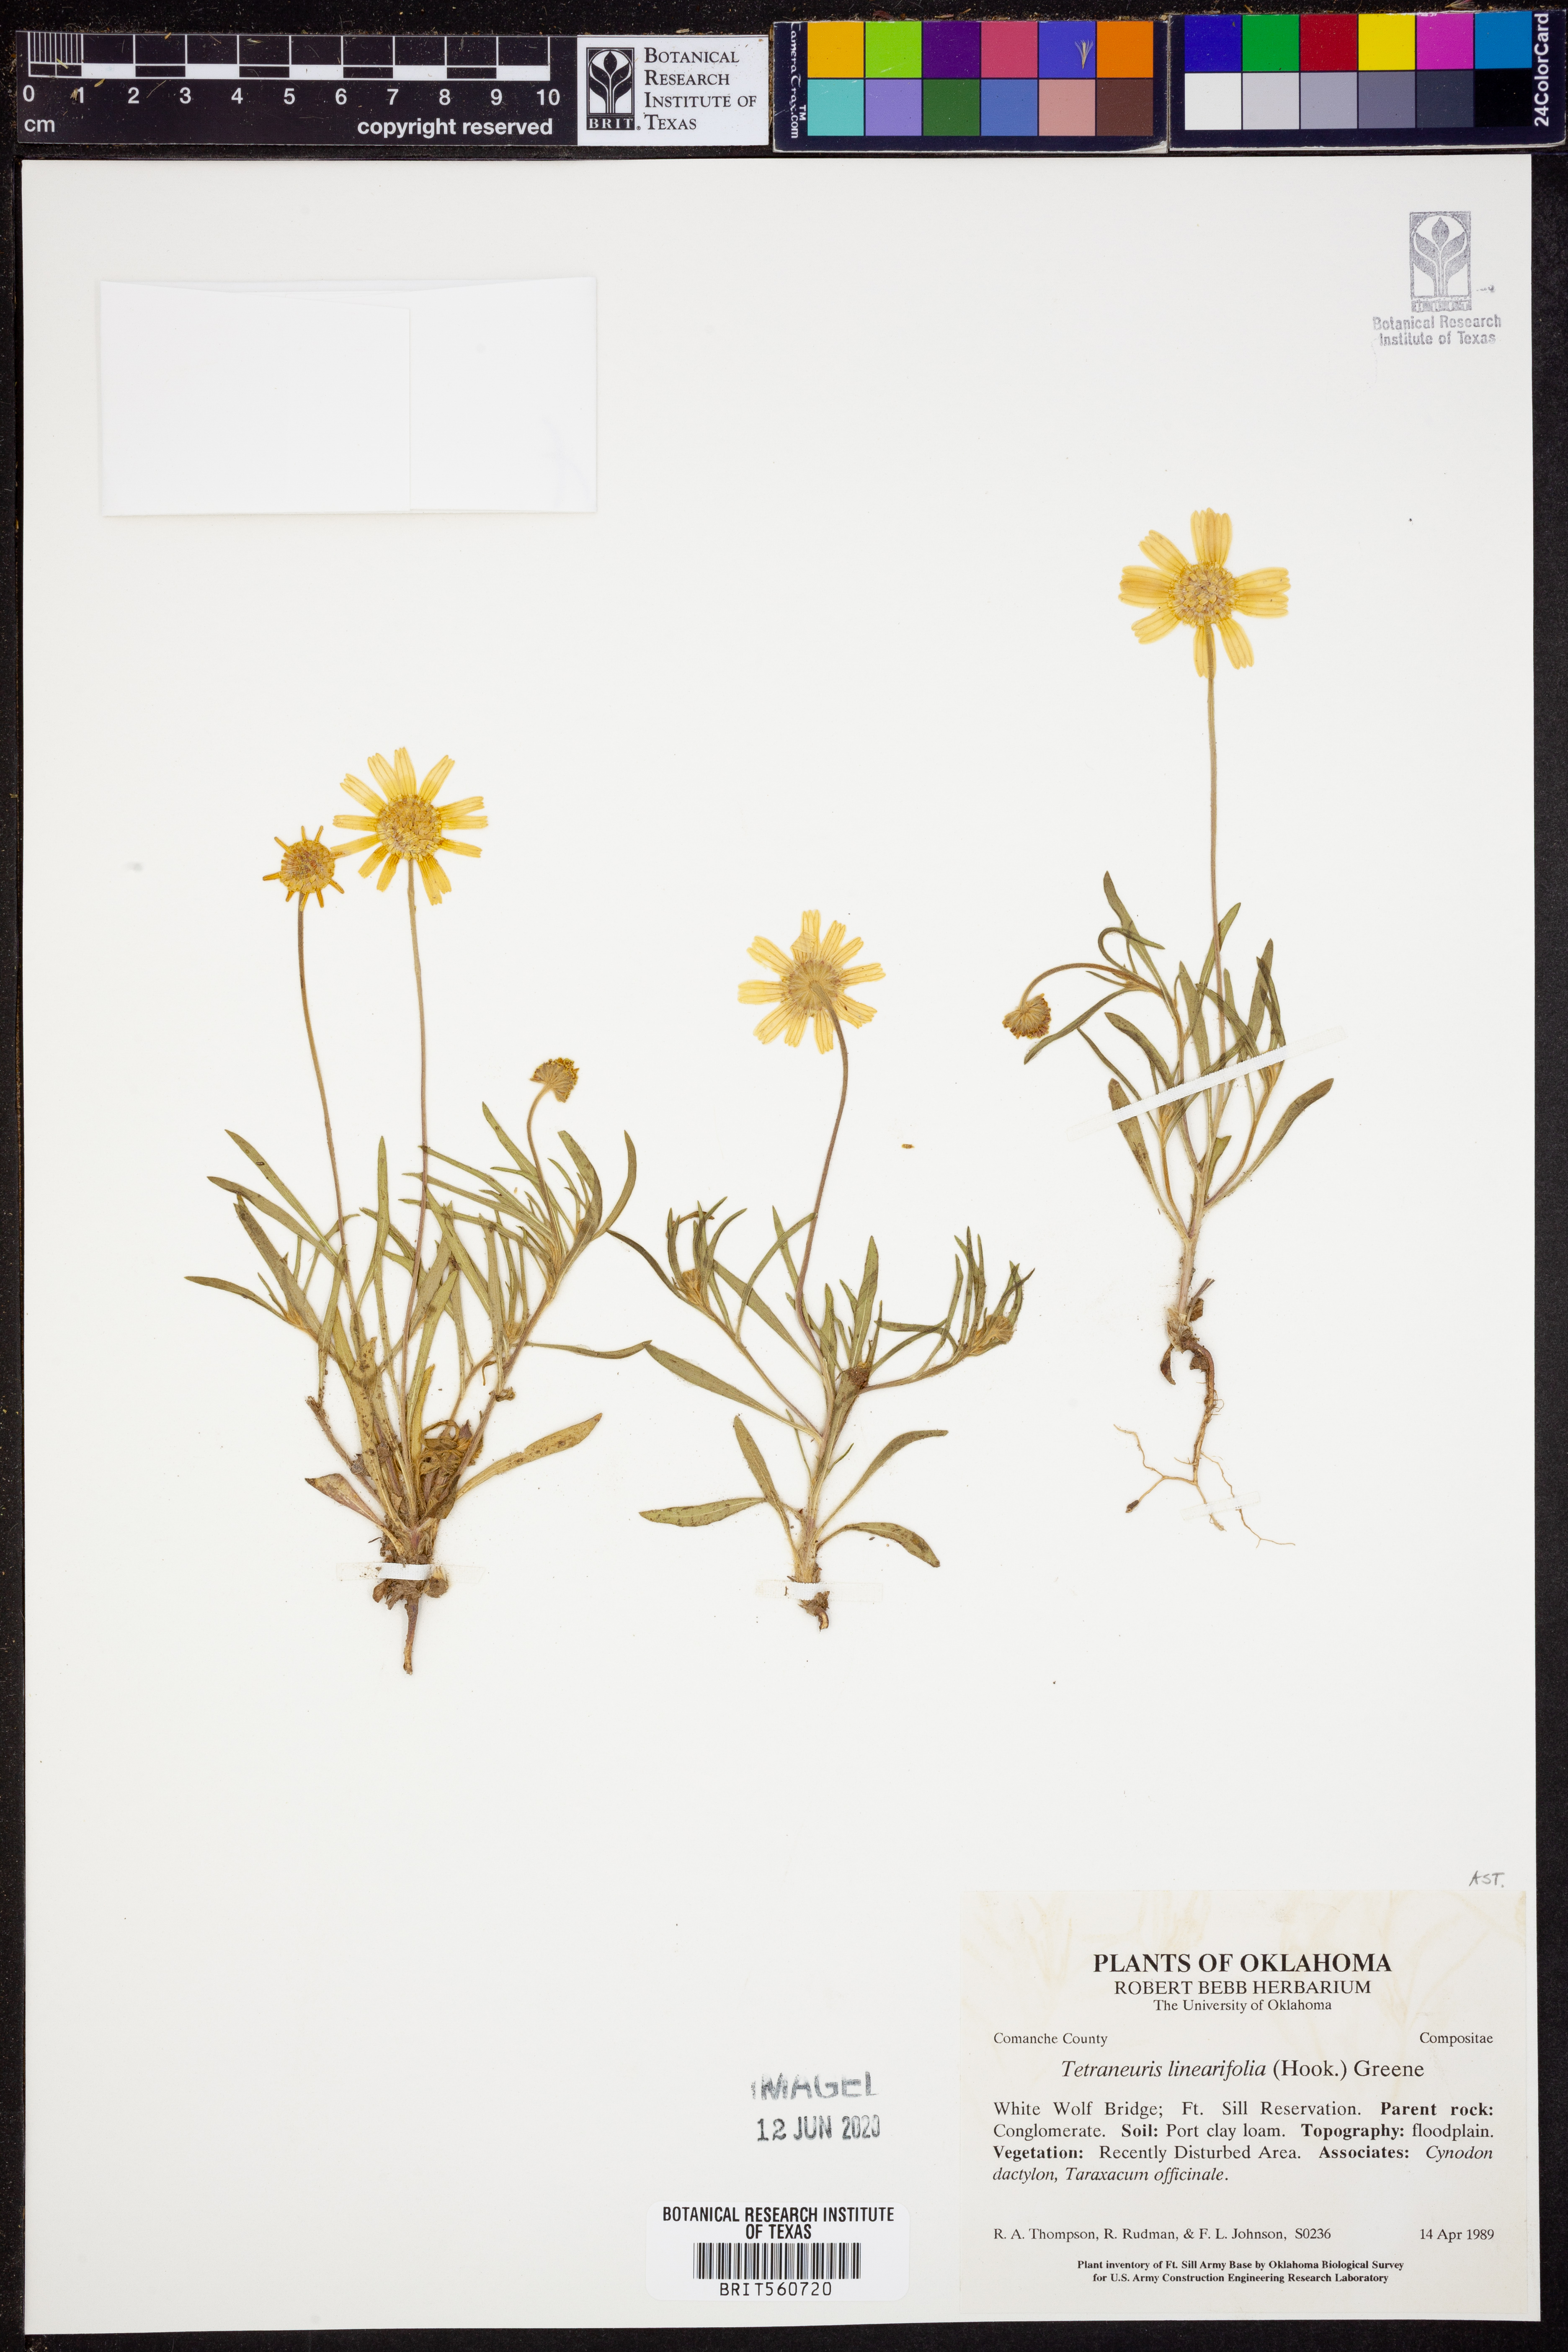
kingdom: Plantae
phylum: Tracheophyta
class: Magnoliopsida
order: Asterales
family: Asteraceae
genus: Tetraneuris
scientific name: Tetraneuris linearifolia
